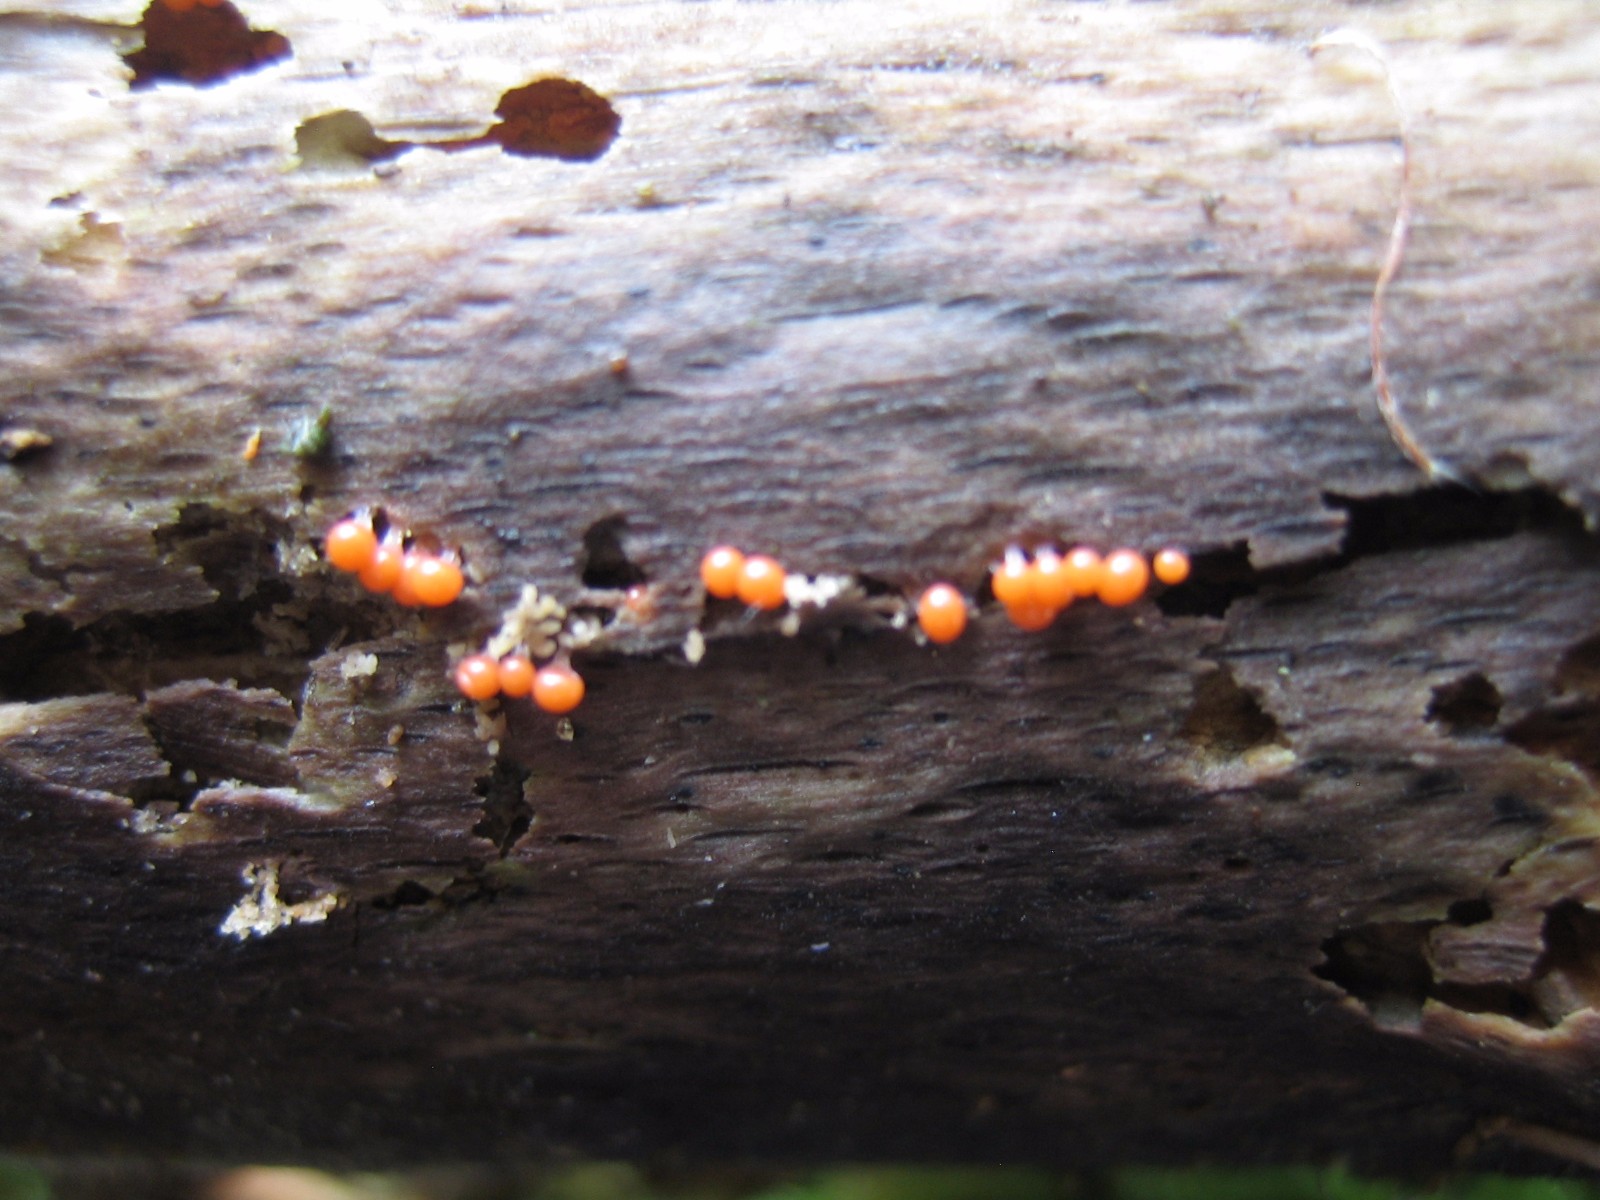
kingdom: Protozoa
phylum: Mycetozoa
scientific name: Mycetozoa
